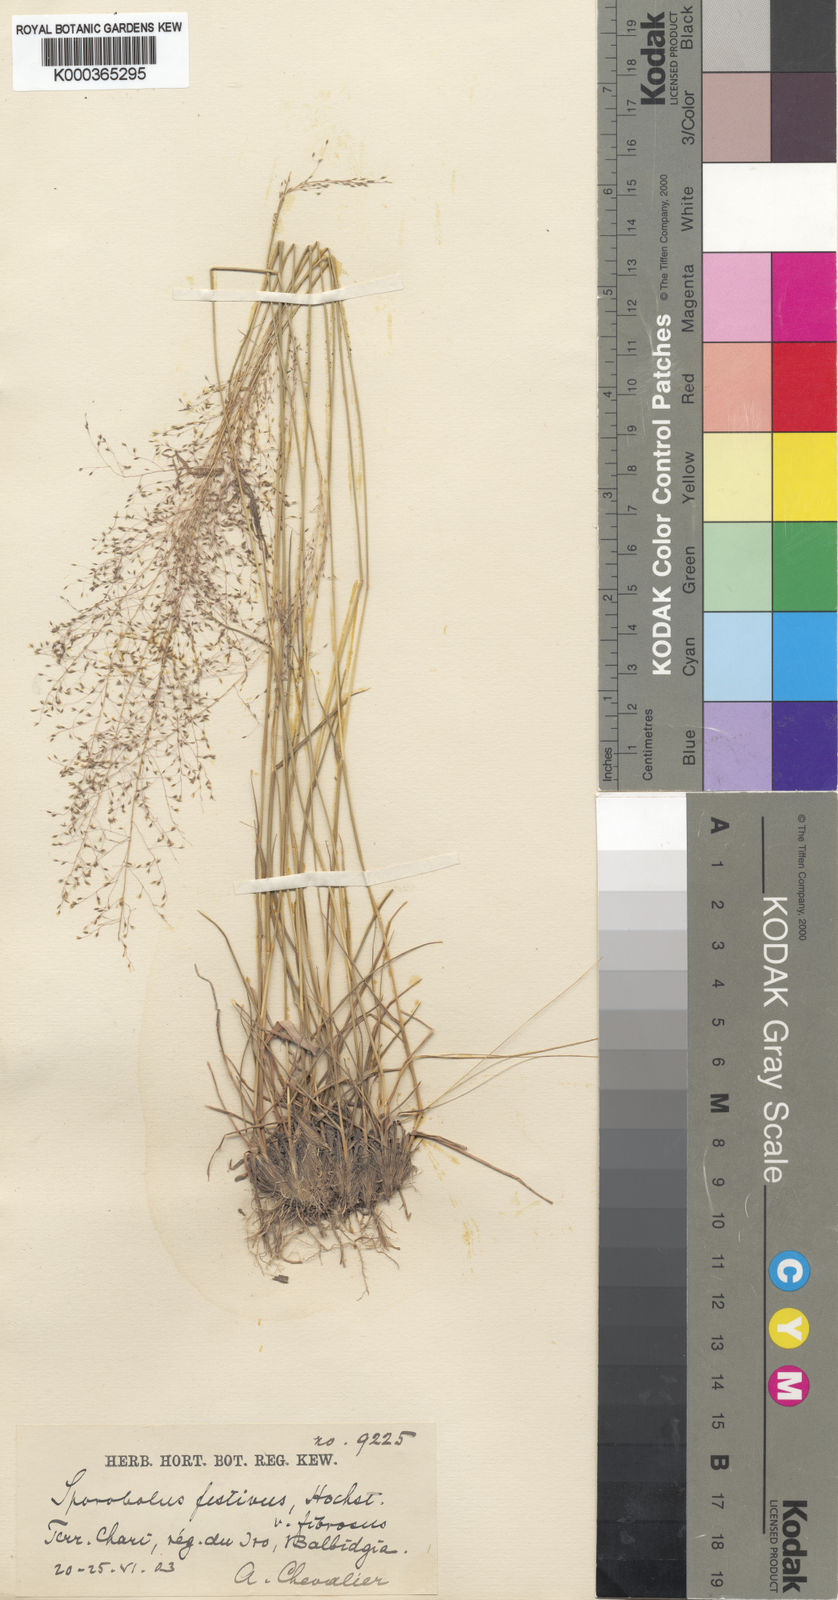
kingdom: Plantae
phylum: Tracheophyta
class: Liliopsida
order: Poales
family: Poaceae
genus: Sporobolus
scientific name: Sporobolus festivus
